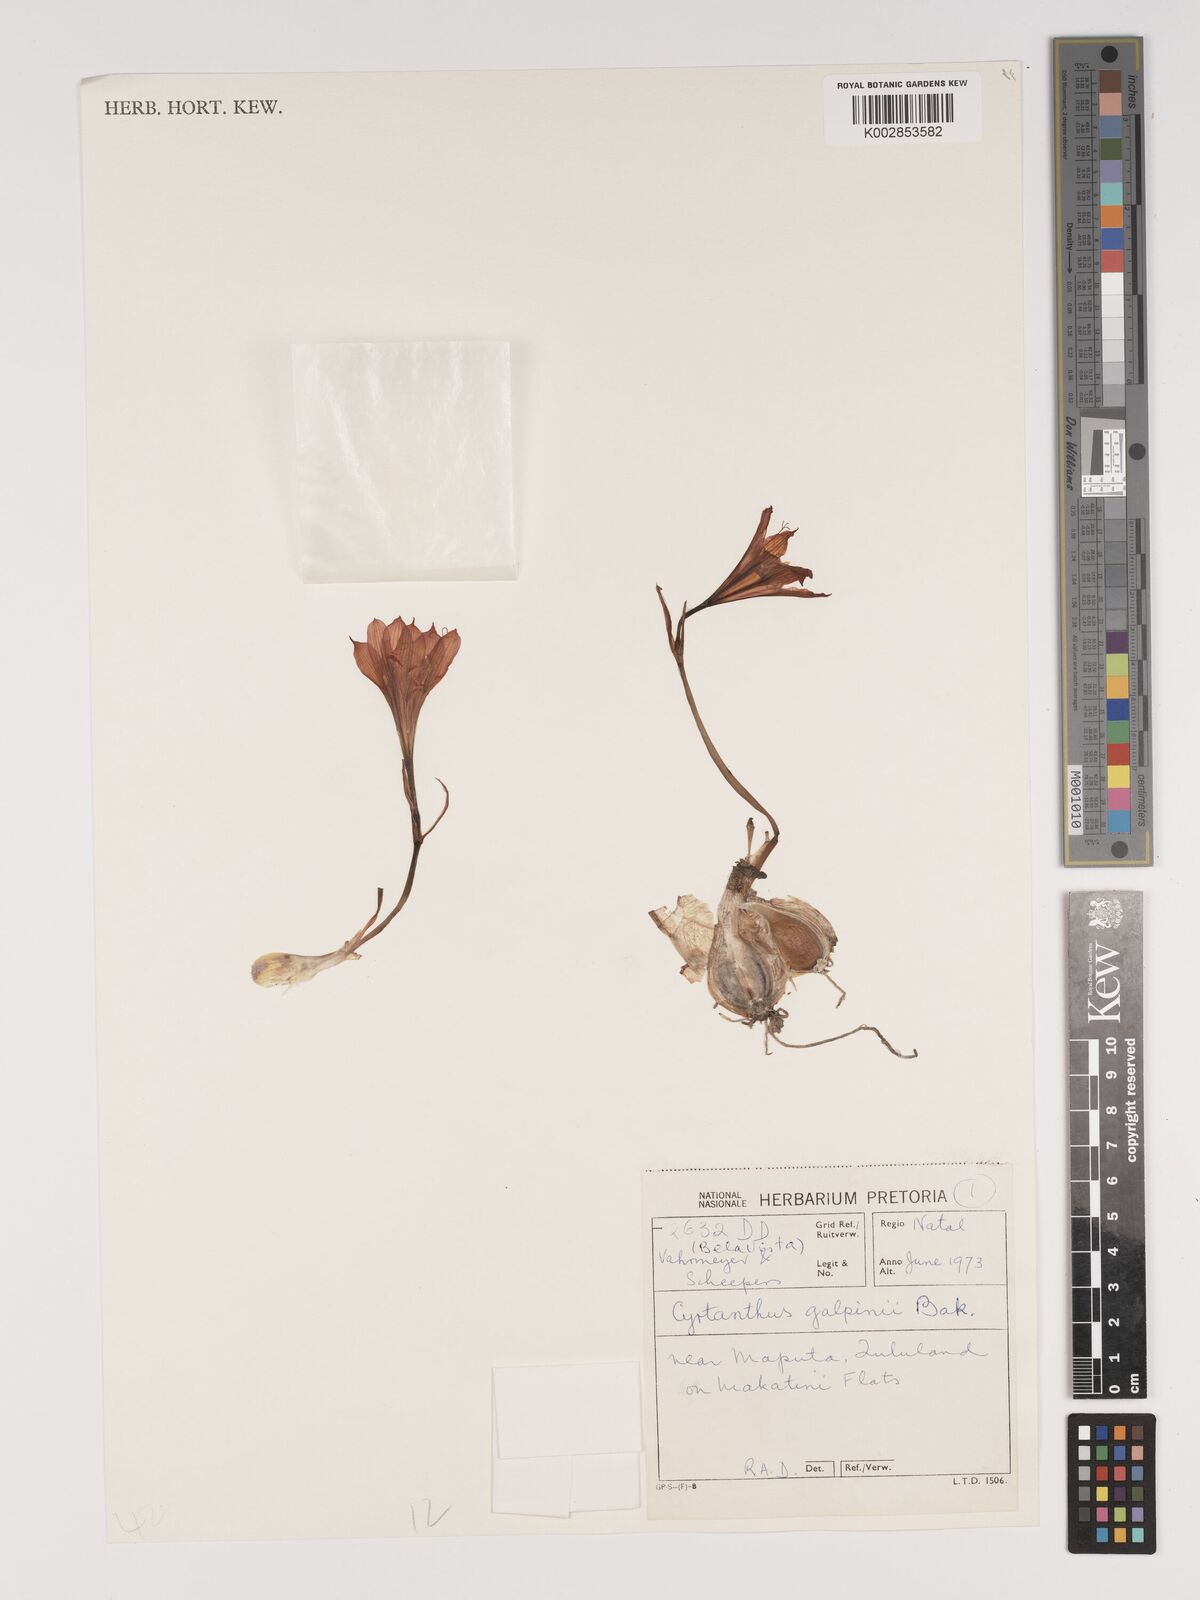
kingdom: Plantae
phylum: Tracheophyta
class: Liliopsida
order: Asparagales
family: Amaryllidaceae
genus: Cyrtanthus
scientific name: Cyrtanthus galpinii
